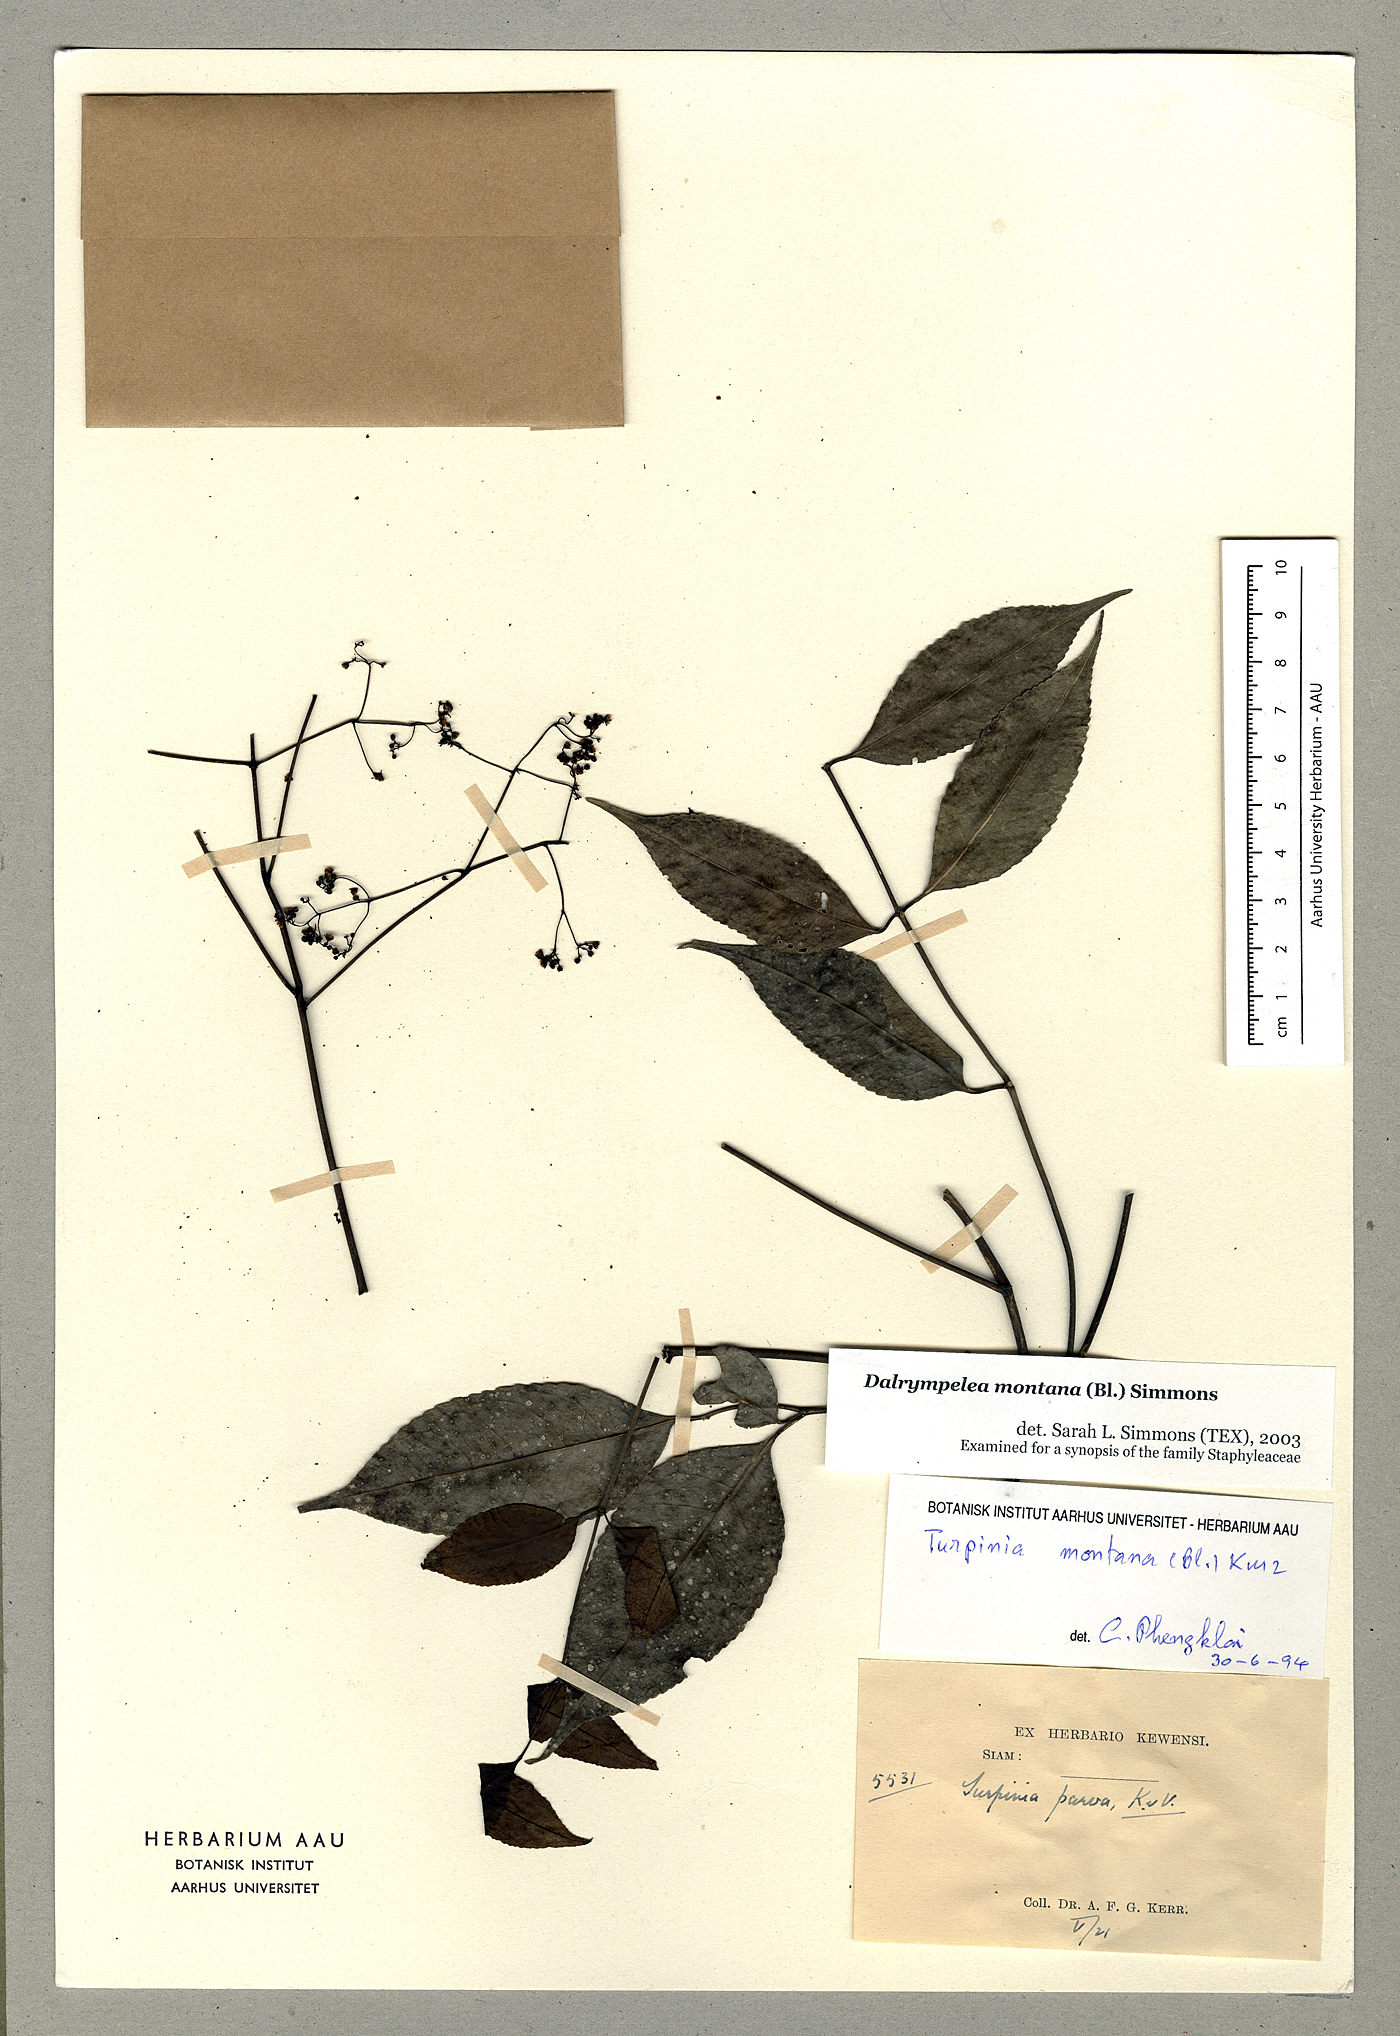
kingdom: Plantae
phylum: Tracheophyta
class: Magnoliopsida
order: Crossosomatales
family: Staphyleaceae
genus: Turpinia
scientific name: Turpinia montana
